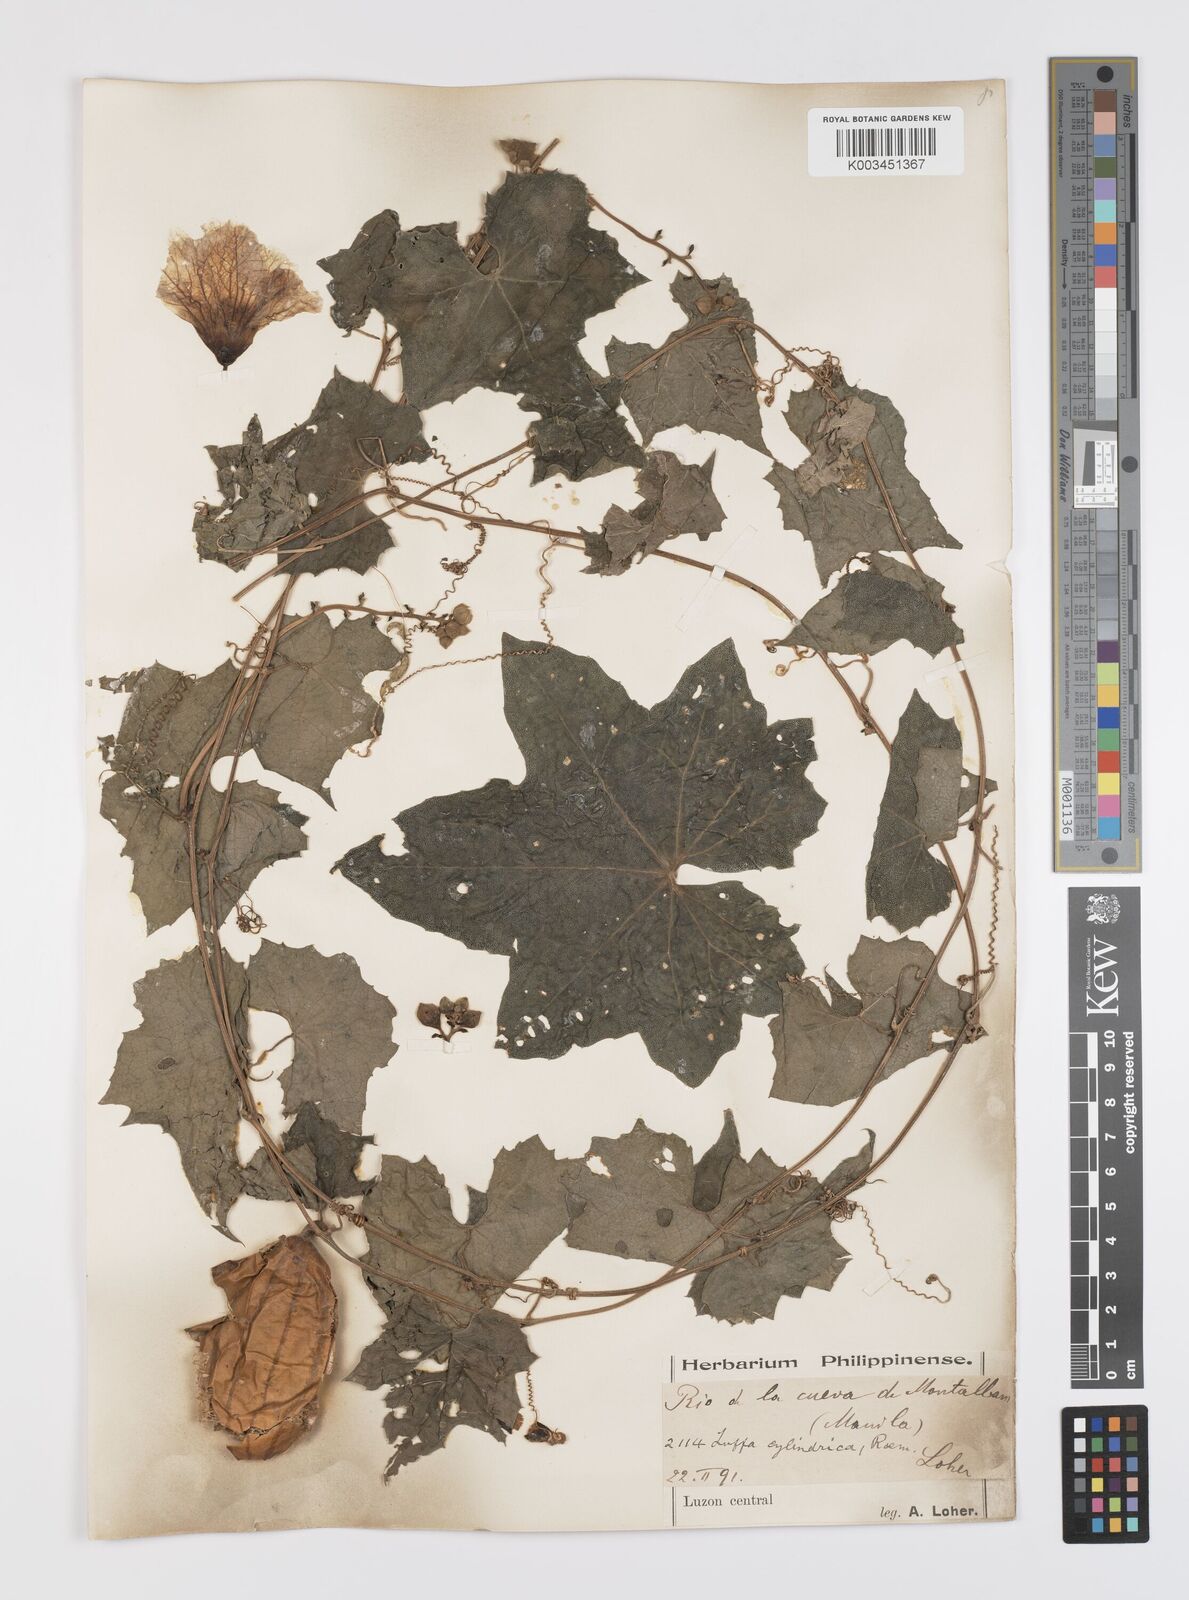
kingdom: Plantae
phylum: Tracheophyta
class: Magnoliopsida
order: Cucurbitales
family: Cucurbitaceae
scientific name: Cucurbitaceae
